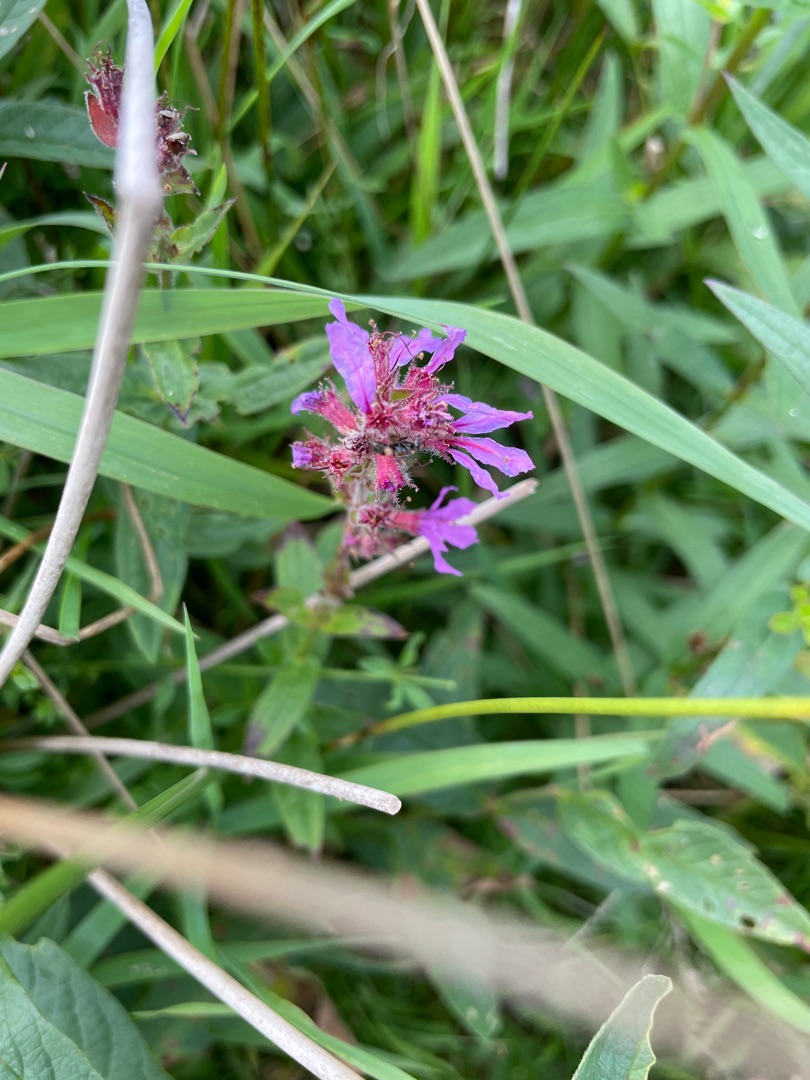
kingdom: Plantae
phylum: Tracheophyta
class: Magnoliopsida
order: Myrtales
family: Lythraceae
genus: Lythrum
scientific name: Lythrum salicaria
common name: Kattehale
